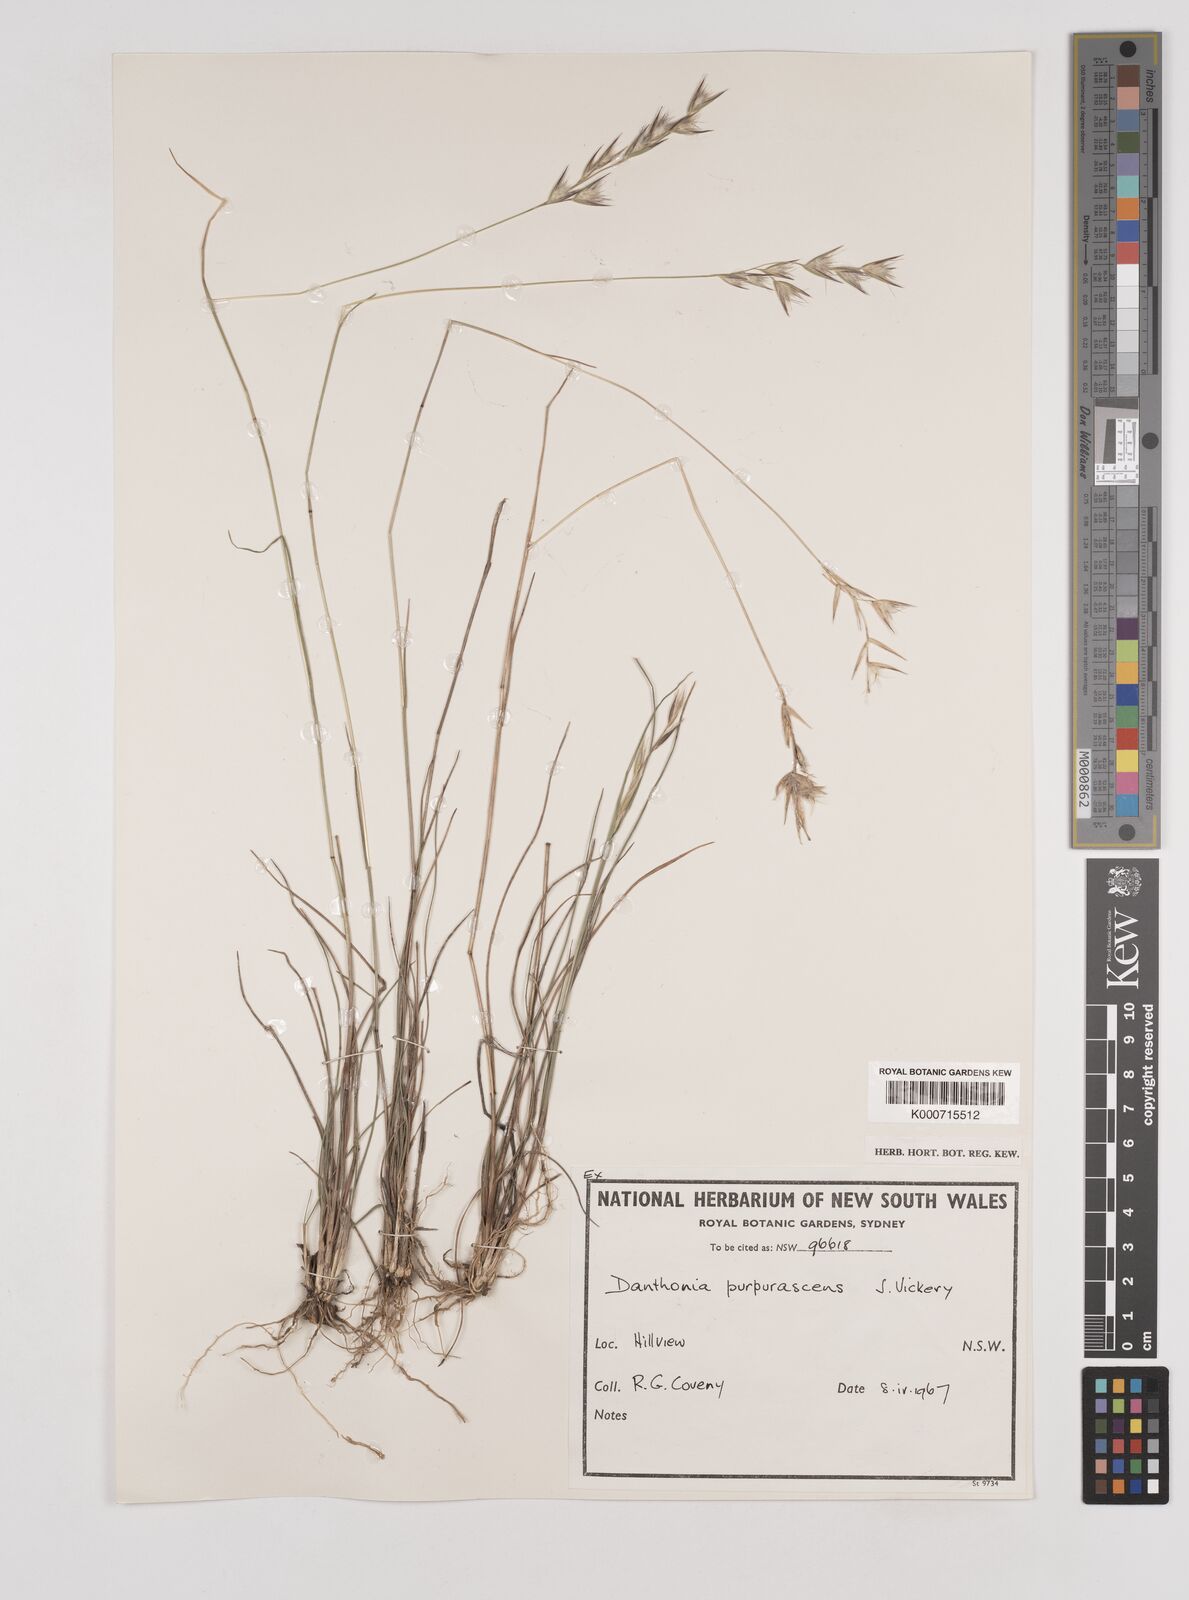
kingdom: Plantae
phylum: Tracheophyta
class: Liliopsida
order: Poales
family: Poaceae
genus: Rytidosperma
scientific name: Rytidosperma tenuius
